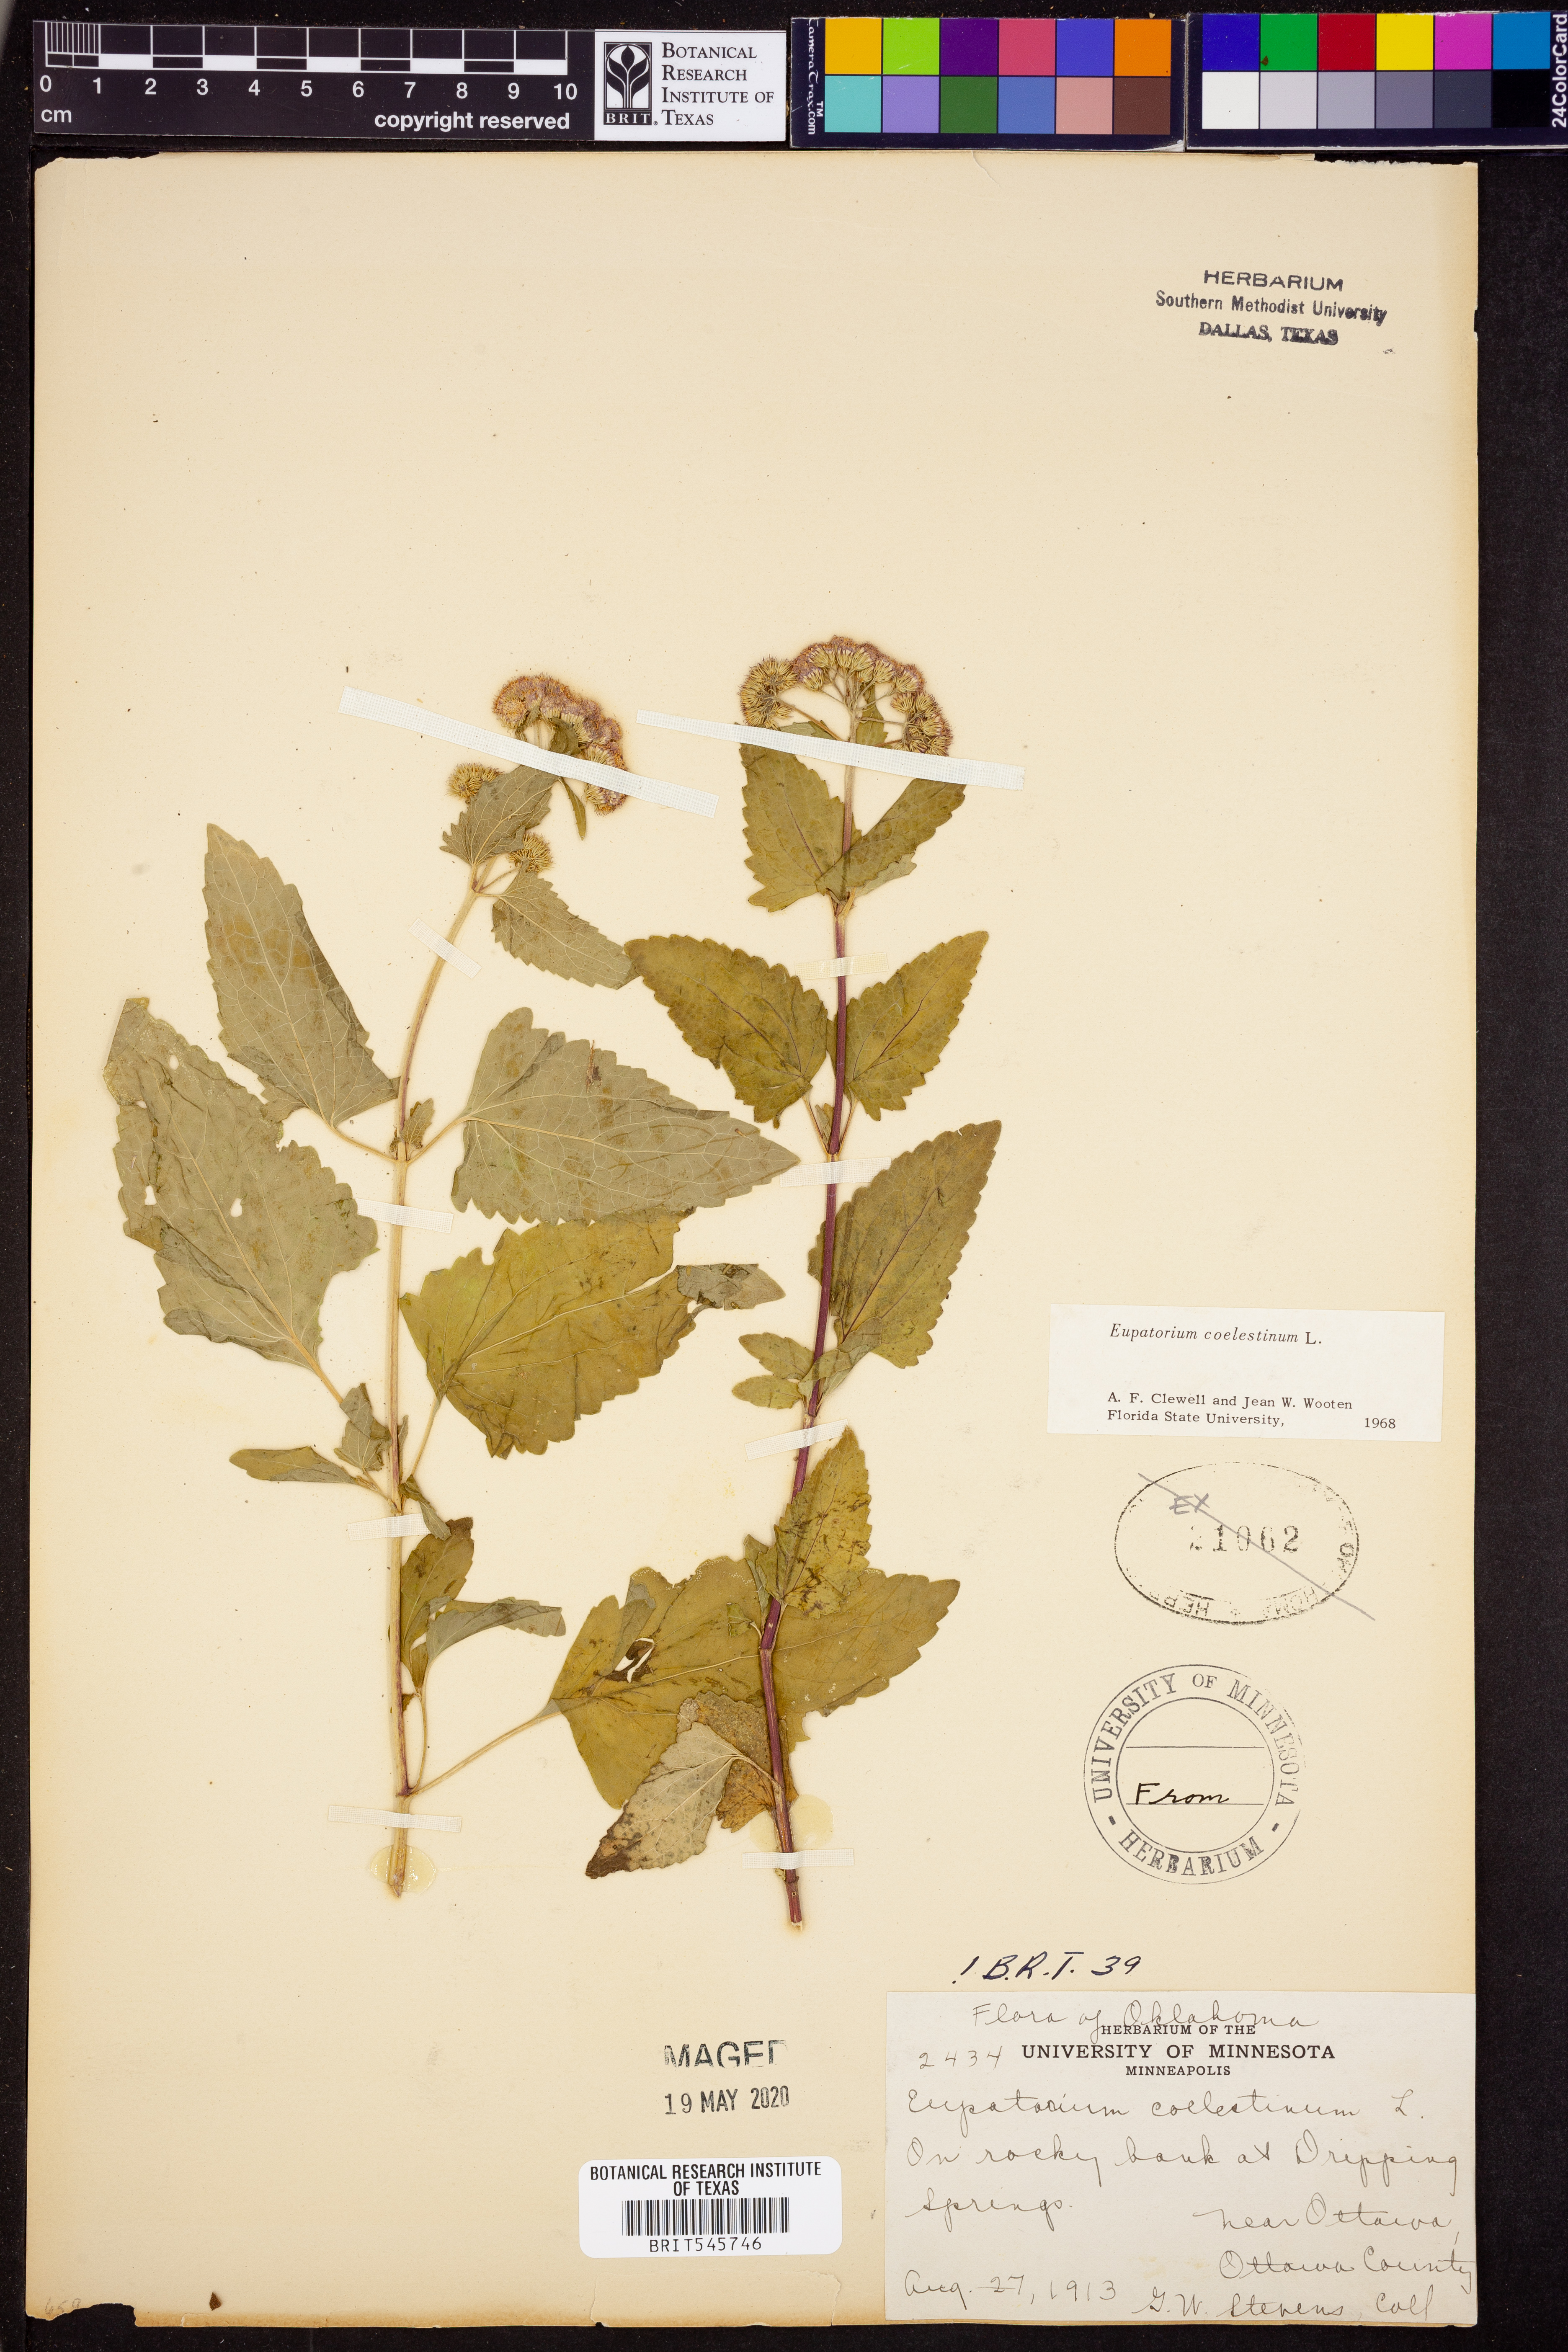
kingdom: Plantae
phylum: Tracheophyta
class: Magnoliopsida
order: Asterales
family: Asteraceae
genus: Conoclinium
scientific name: Conoclinium coelestinum
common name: Blue mistflower
